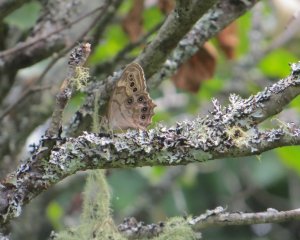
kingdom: Animalia
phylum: Arthropoda
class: Insecta
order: Lepidoptera
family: Nymphalidae
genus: Lethe
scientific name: Lethe anthedon
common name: Northern Pearly-Eye
